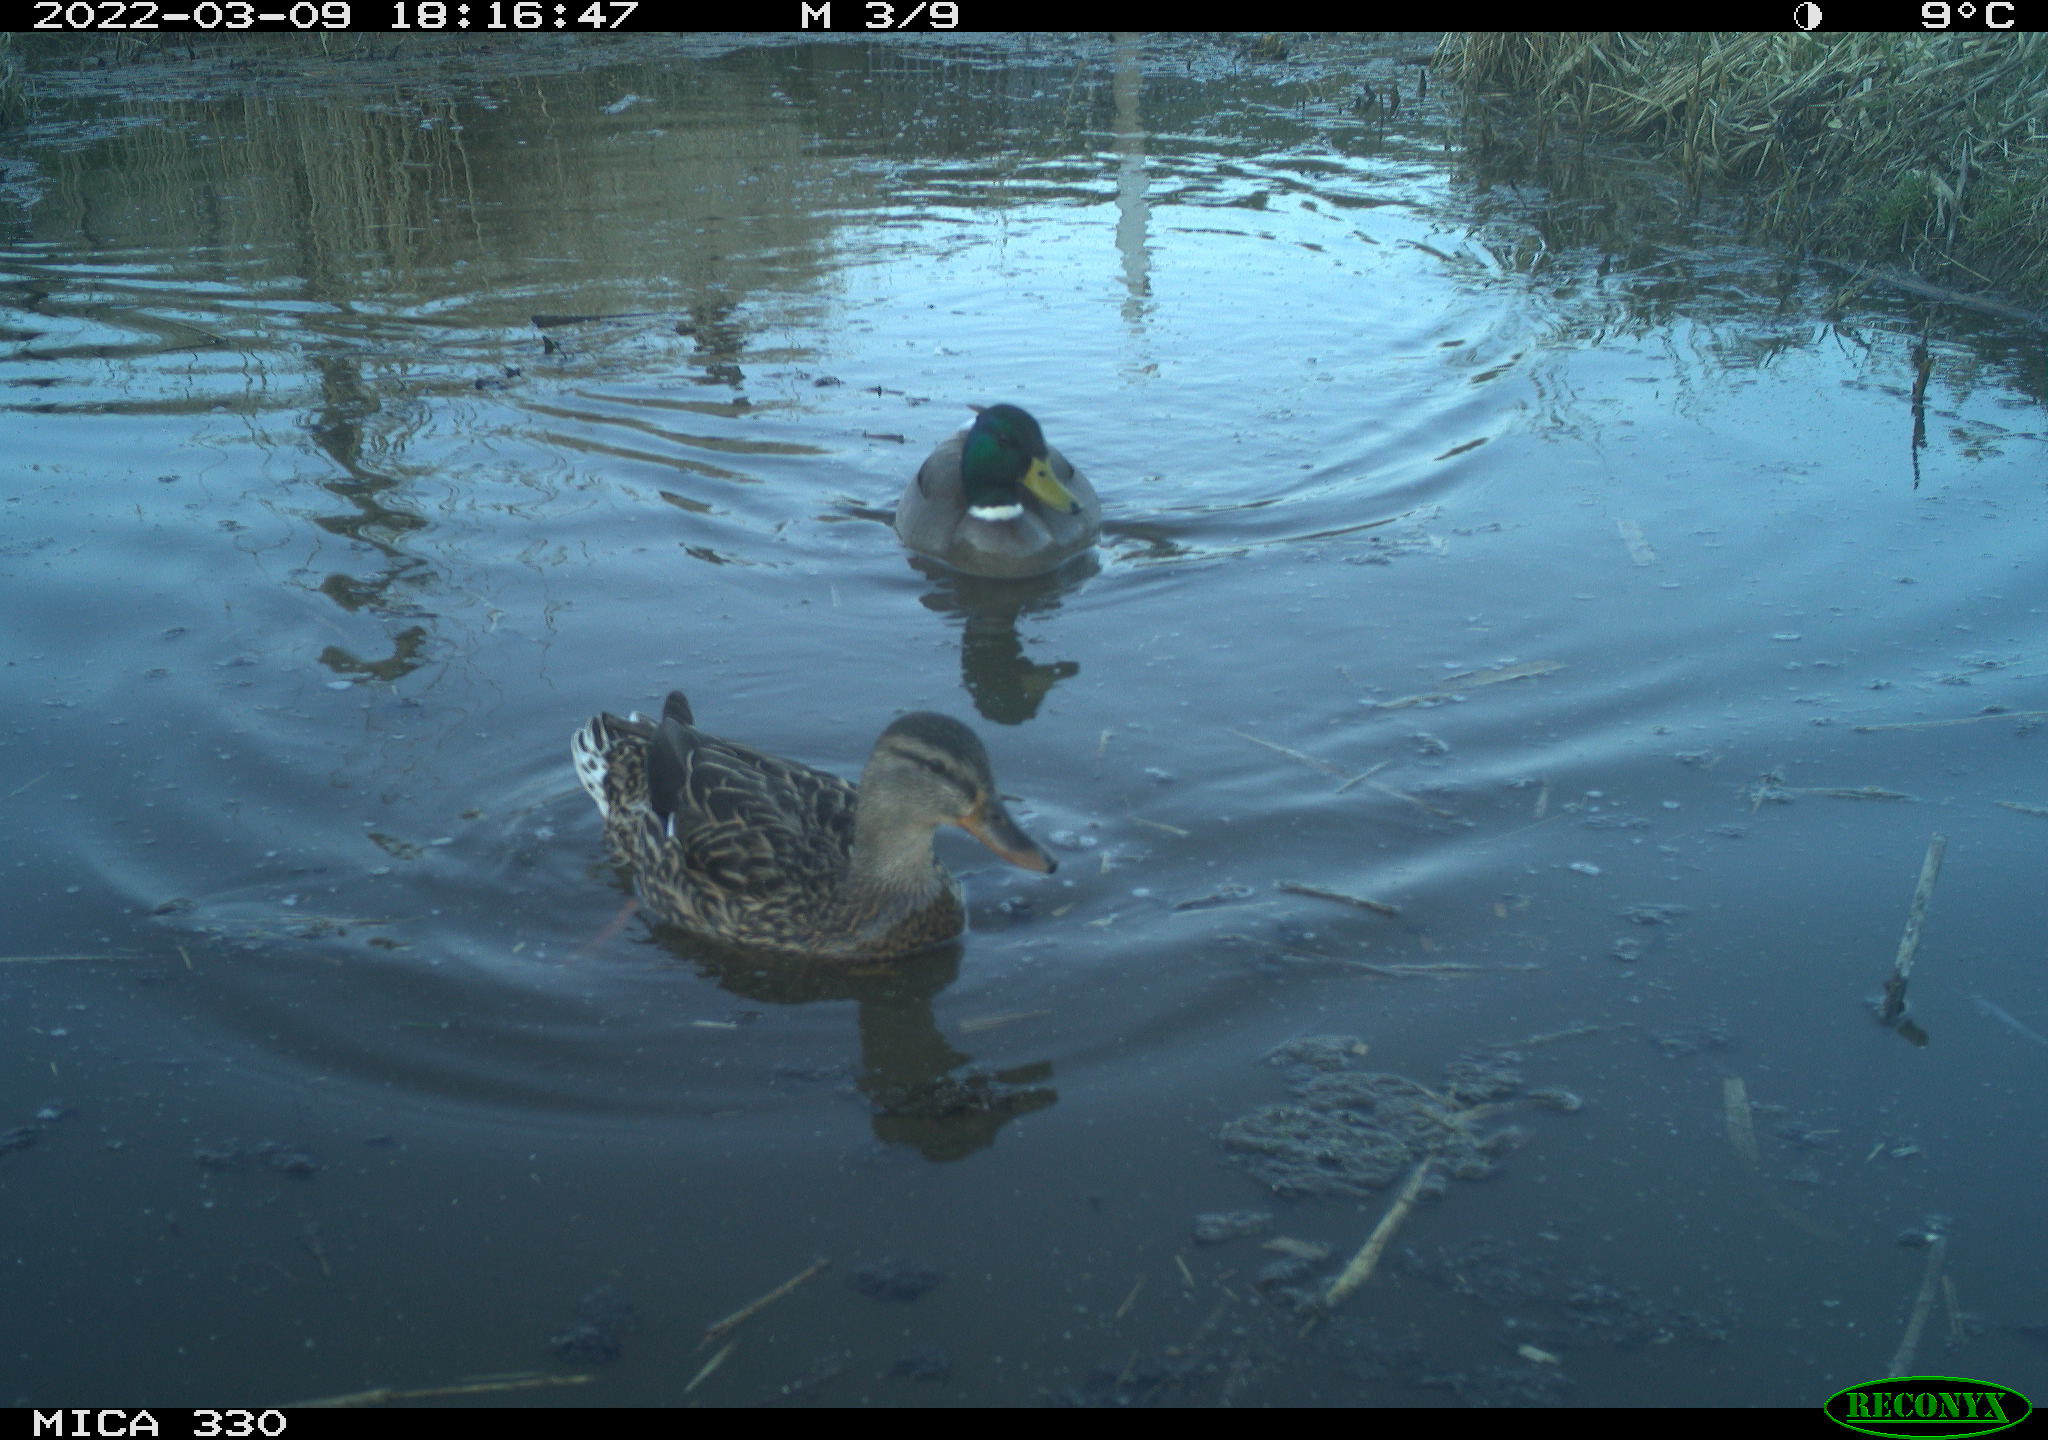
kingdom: Animalia
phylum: Chordata
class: Aves
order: Anseriformes
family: Anatidae
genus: Anas
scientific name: Anas platyrhynchos
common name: Mallard
